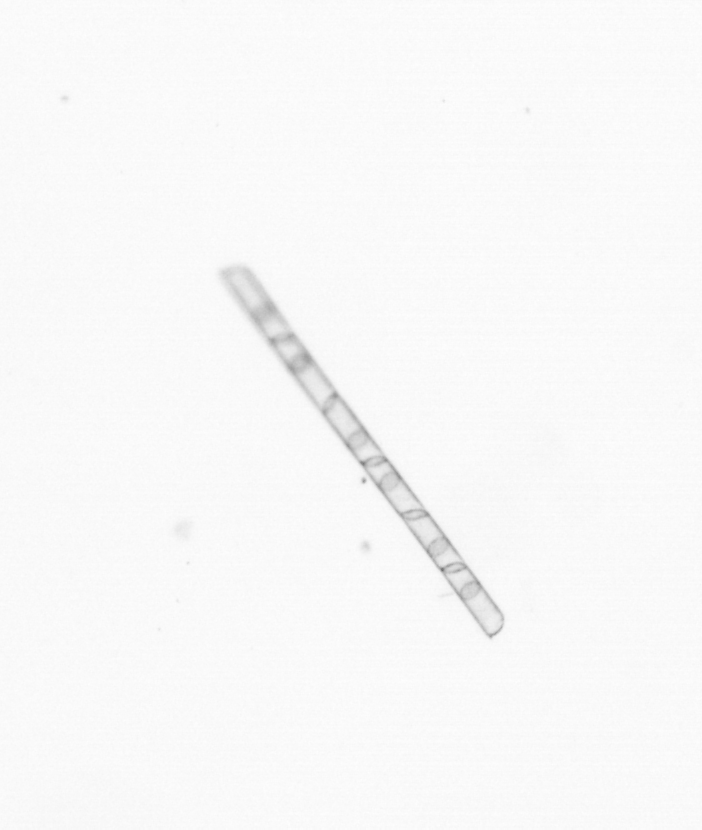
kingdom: Chromista
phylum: Ochrophyta
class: Bacillariophyceae
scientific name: Bacillariophyceae
